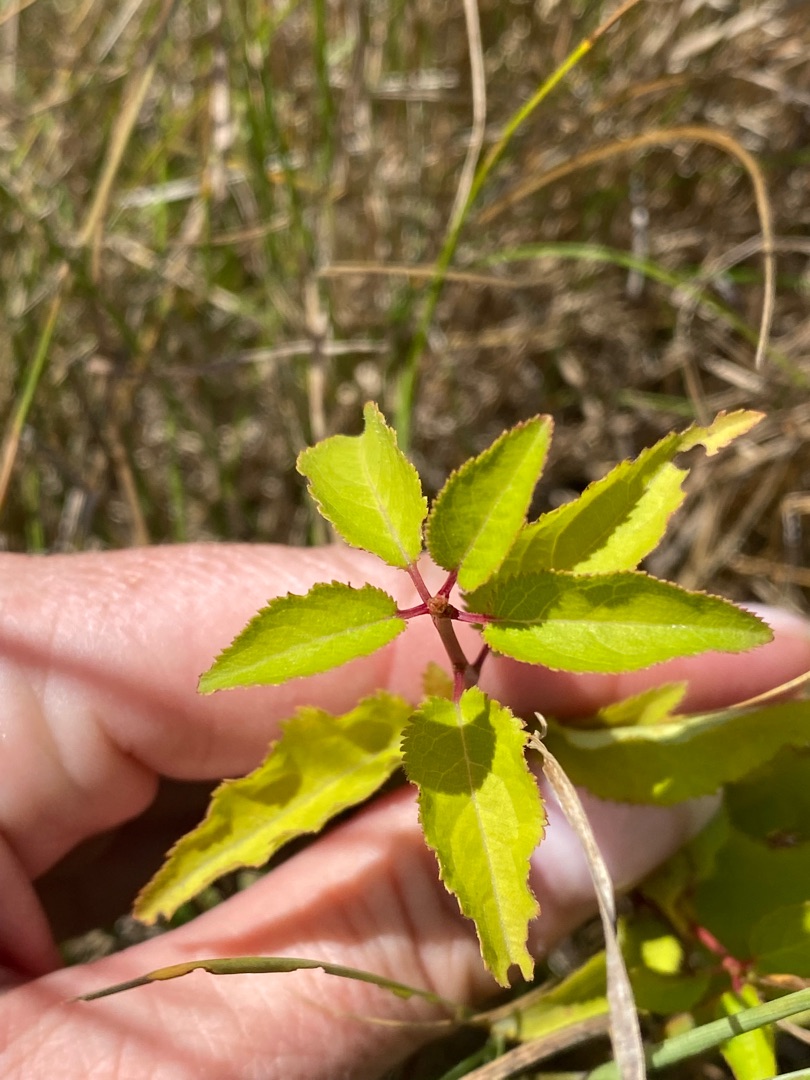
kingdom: Plantae
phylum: Tracheophyta
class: Magnoliopsida
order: Rosales
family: Rosaceae
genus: Prunus
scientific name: Prunus cerasifera
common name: Mirabel
